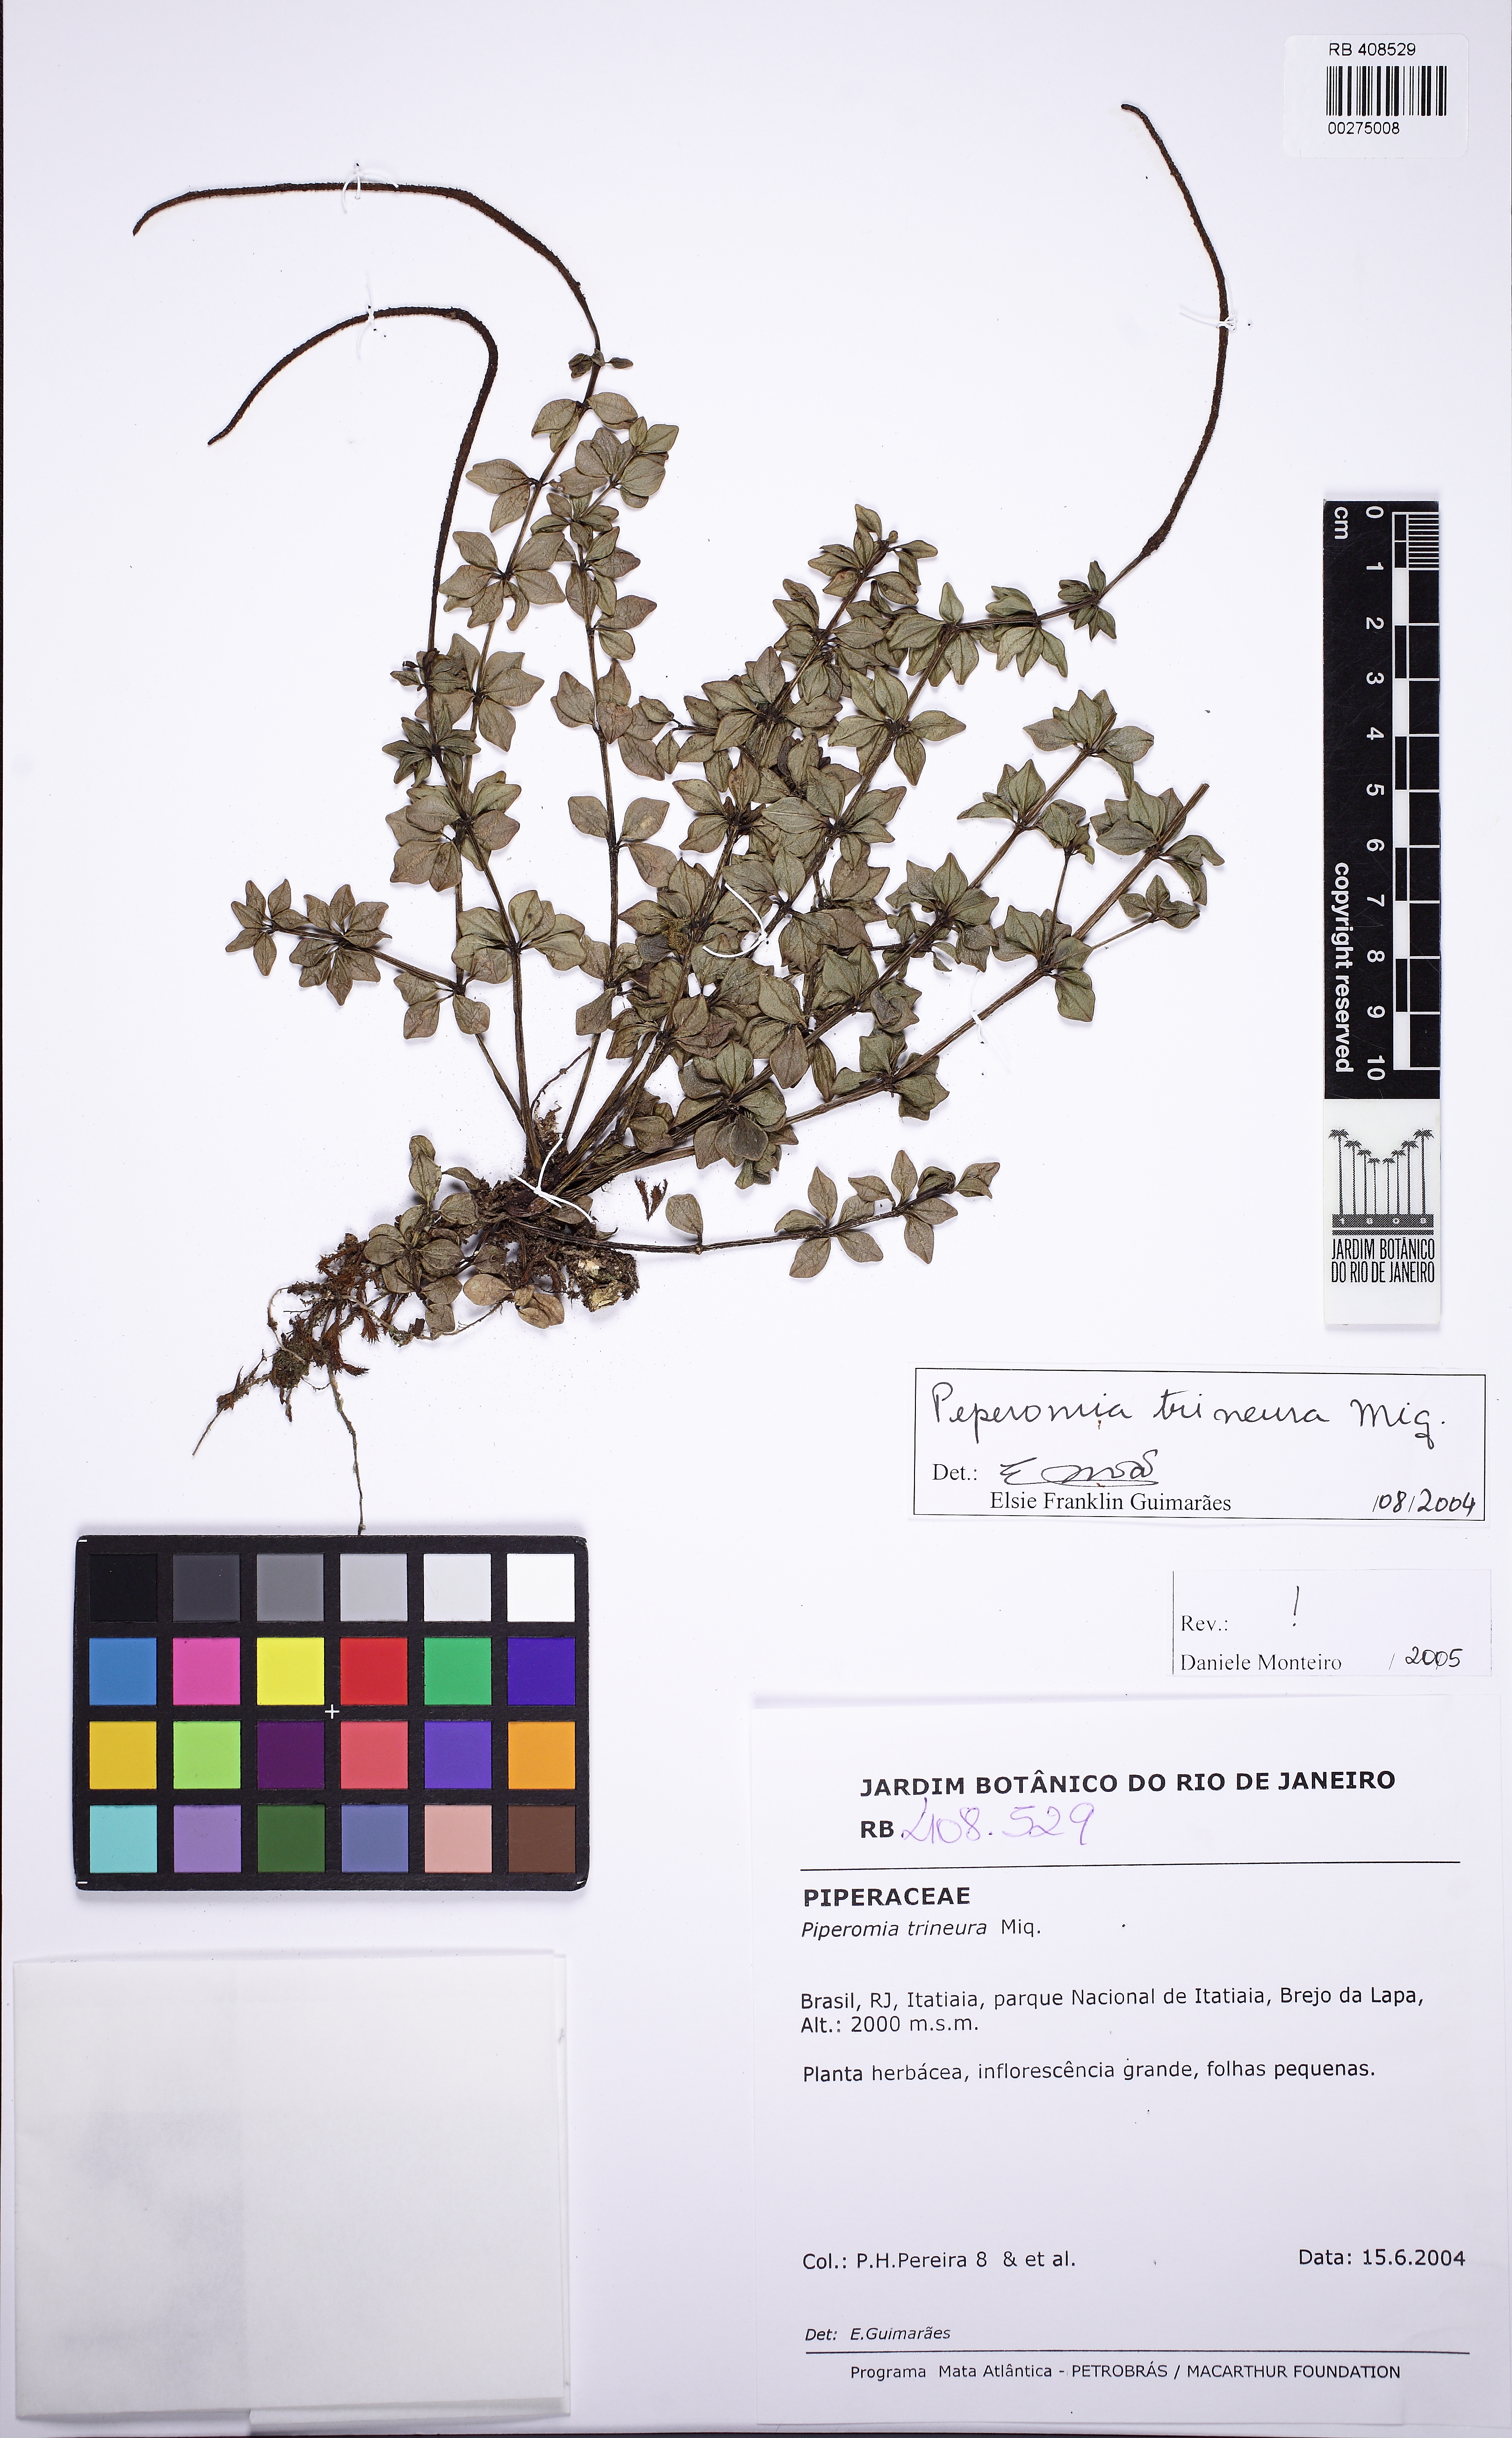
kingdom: Plantae
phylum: Tracheophyta
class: Magnoliopsida
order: Piperales
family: Piperaceae
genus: Peperomia
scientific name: Peperomia trineura
